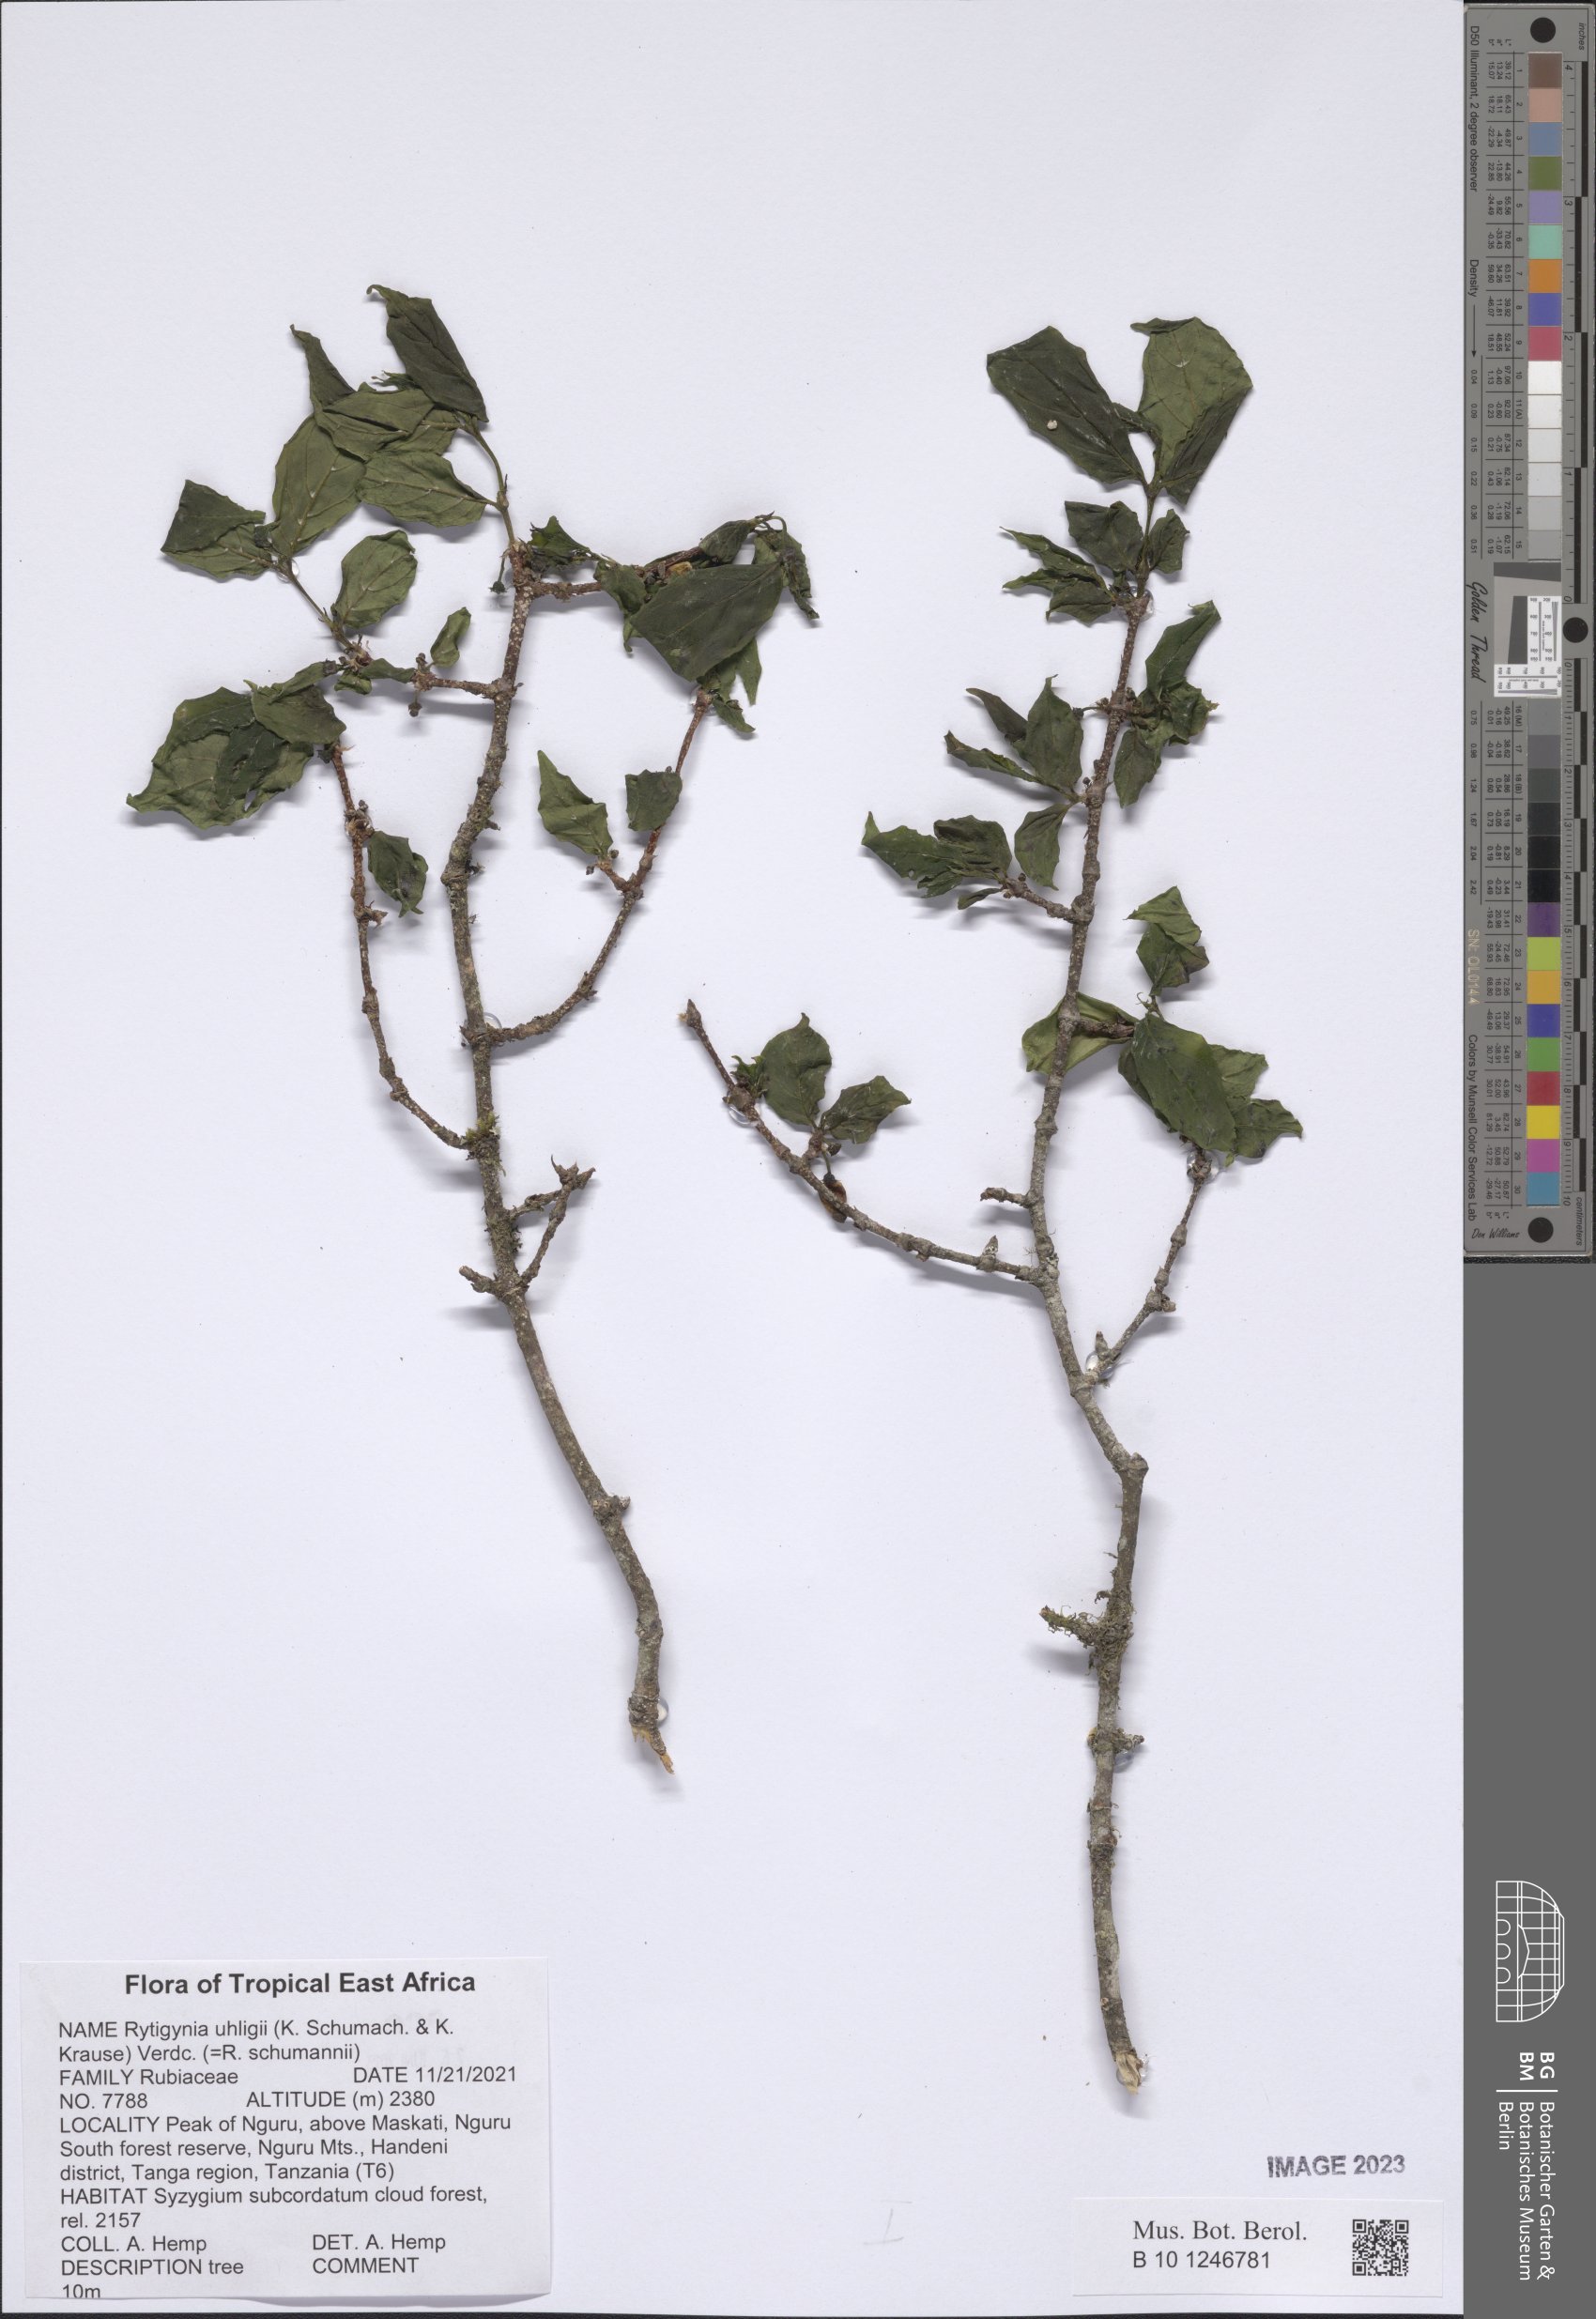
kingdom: Plantae
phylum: Tracheophyta
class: Magnoliopsida
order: Gentianales
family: Rubiaceae
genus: Rytigynia
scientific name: Rytigynia uhligii
